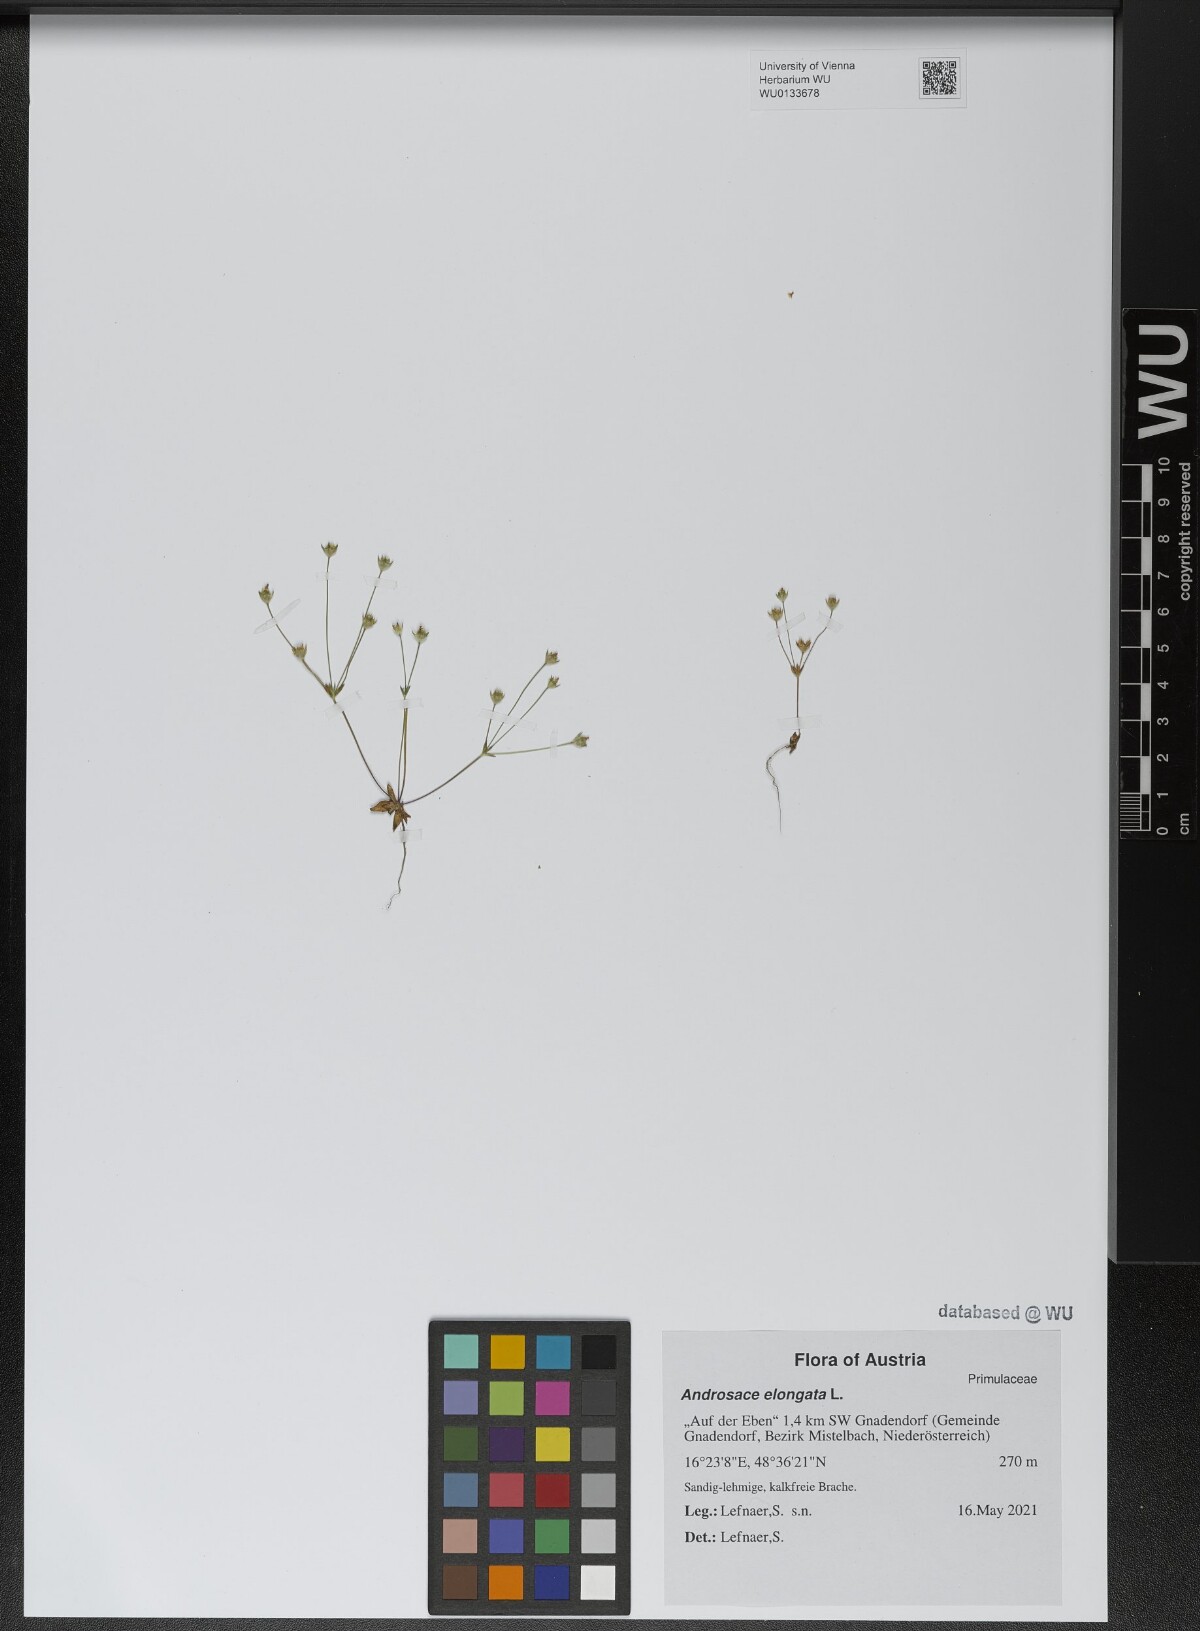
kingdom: Plantae
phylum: Tracheophyta
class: Magnoliopsida
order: Ericales
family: Primulaceae
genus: Androsace
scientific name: Androsace elongata
